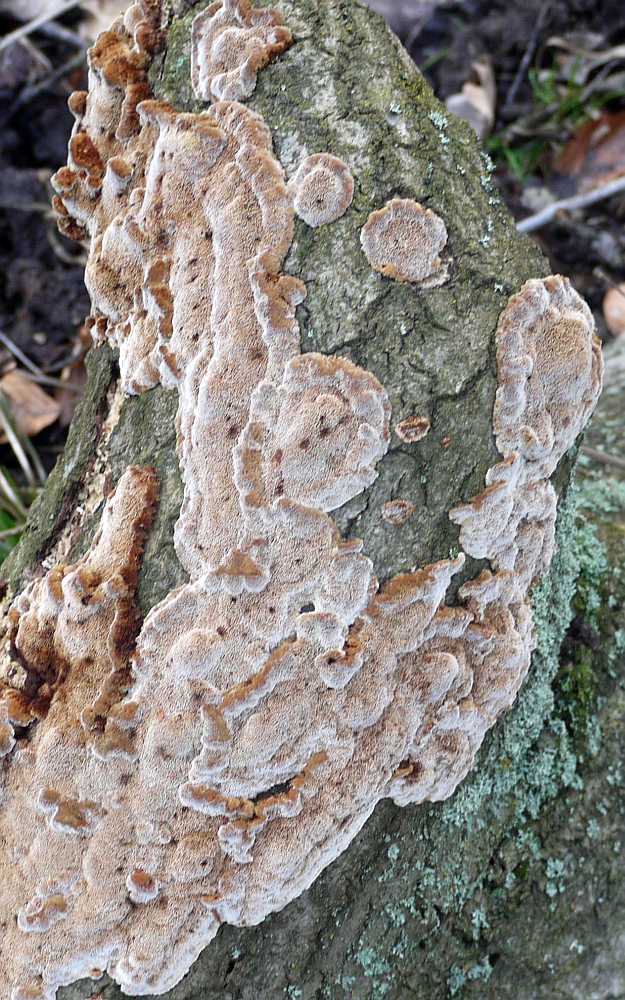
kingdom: Fungi
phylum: Basidiomycota
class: Agaricomycetes
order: Hymenochaetales
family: Hymenochaetaceae
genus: Mensularia
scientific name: Mensularia nodulosa
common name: bøge-spejlporesvamp
